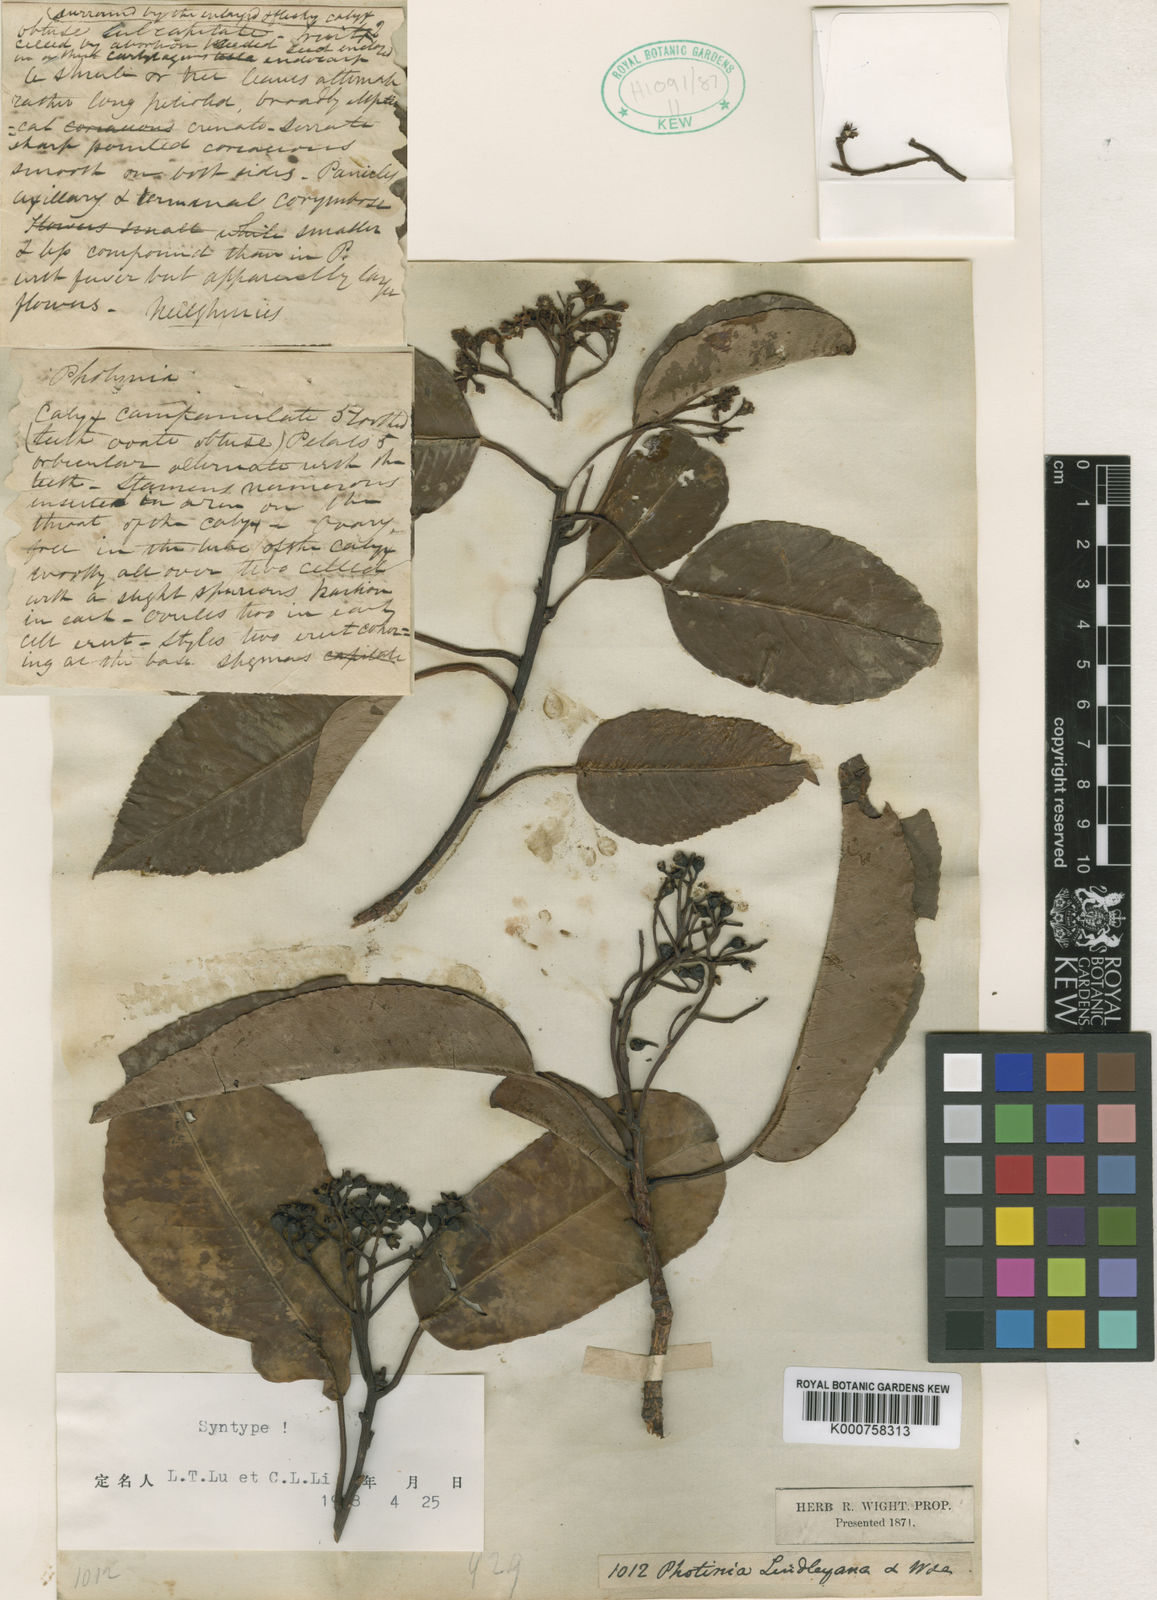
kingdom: Plantae
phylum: Tracheophyta
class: Magnoliopsida
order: Rosales
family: Rosaceae
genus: Photinia
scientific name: Photinia lindleyana
